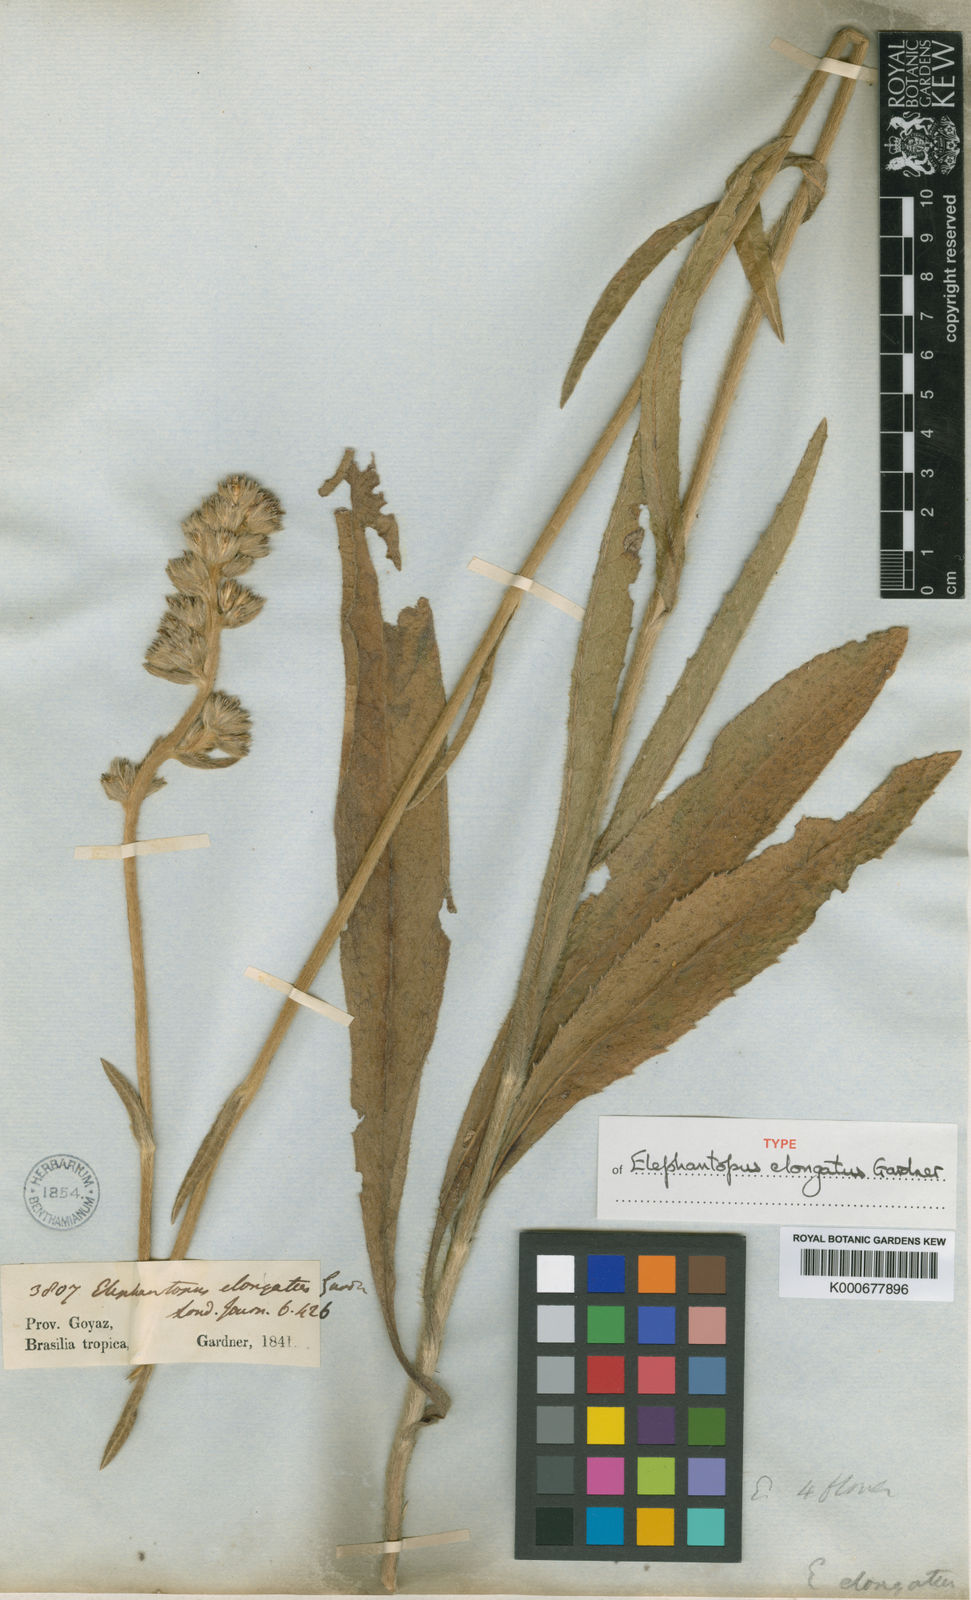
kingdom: Plantae
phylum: Tracheophyta
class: Magnoliopsida
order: Asterales
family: Asteraceae
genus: Elephantopus
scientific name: Elephantopus elongatus
